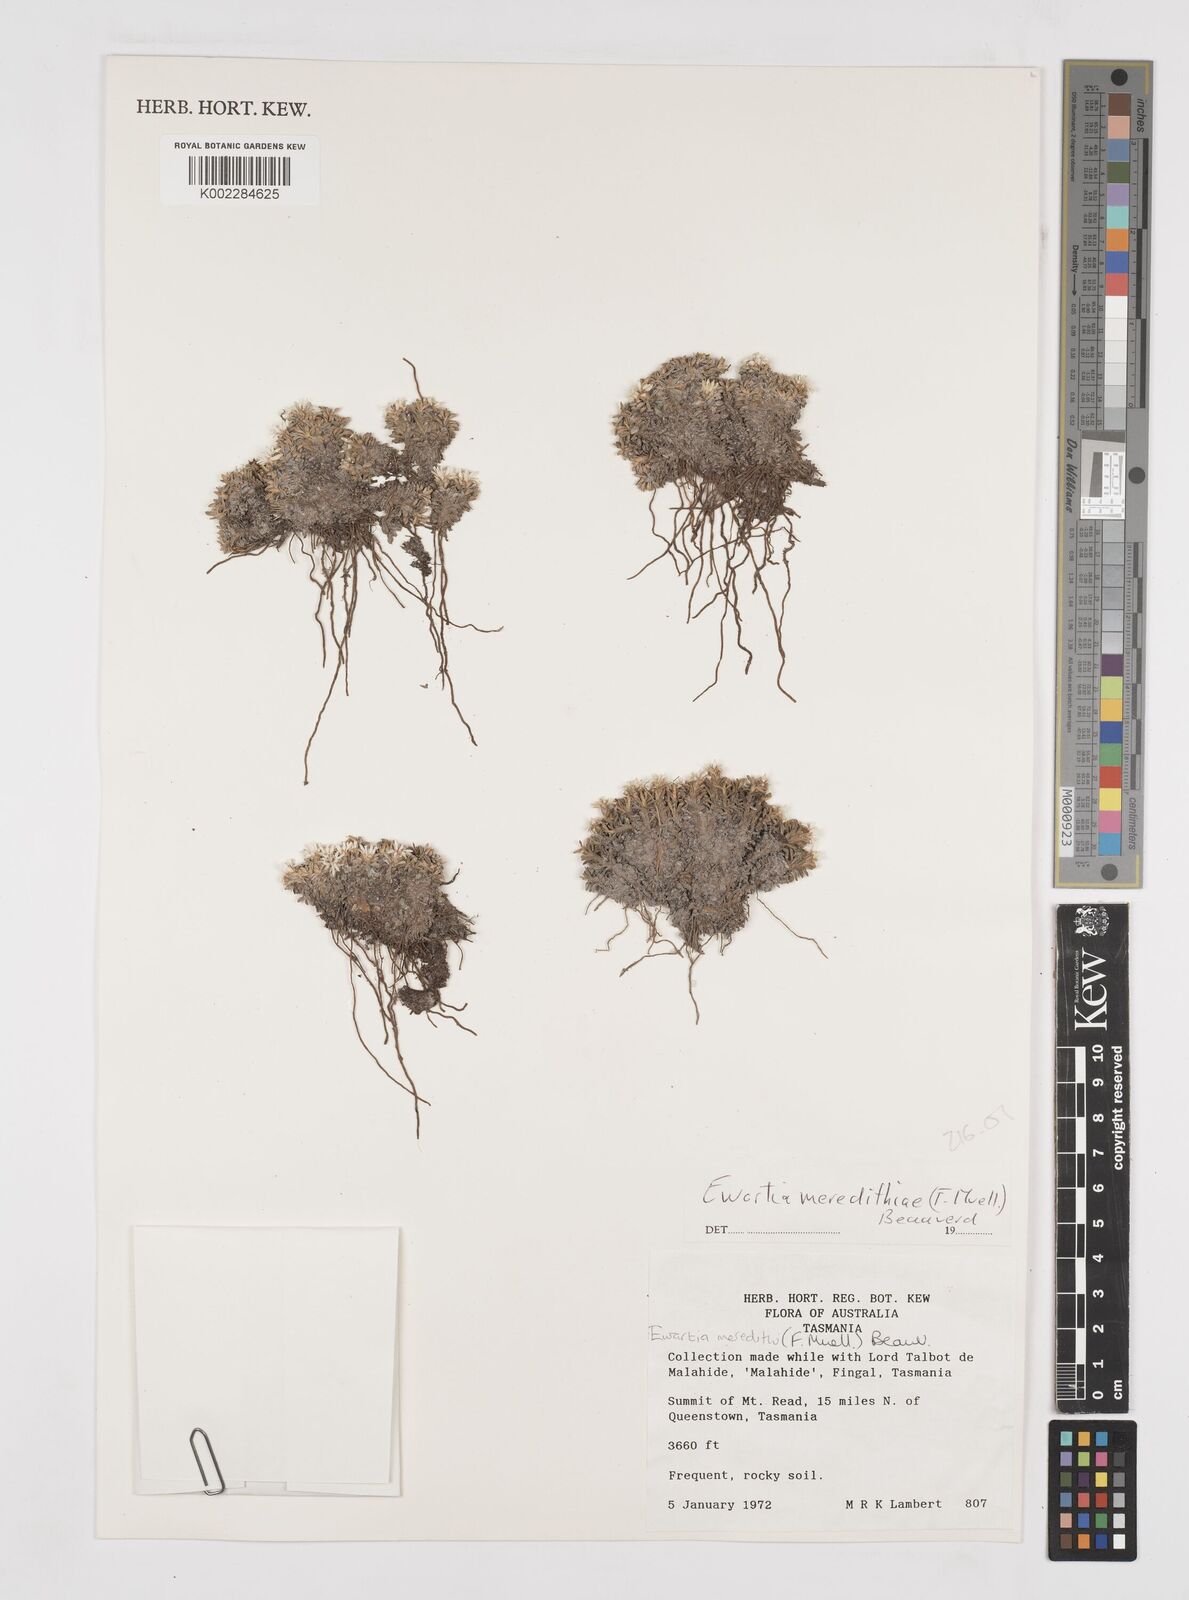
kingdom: Plantae
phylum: Tracheophyta
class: Magnoliopsida
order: Asterales
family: Asteraceae
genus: Ewartia
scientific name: Ewartia meredithae
